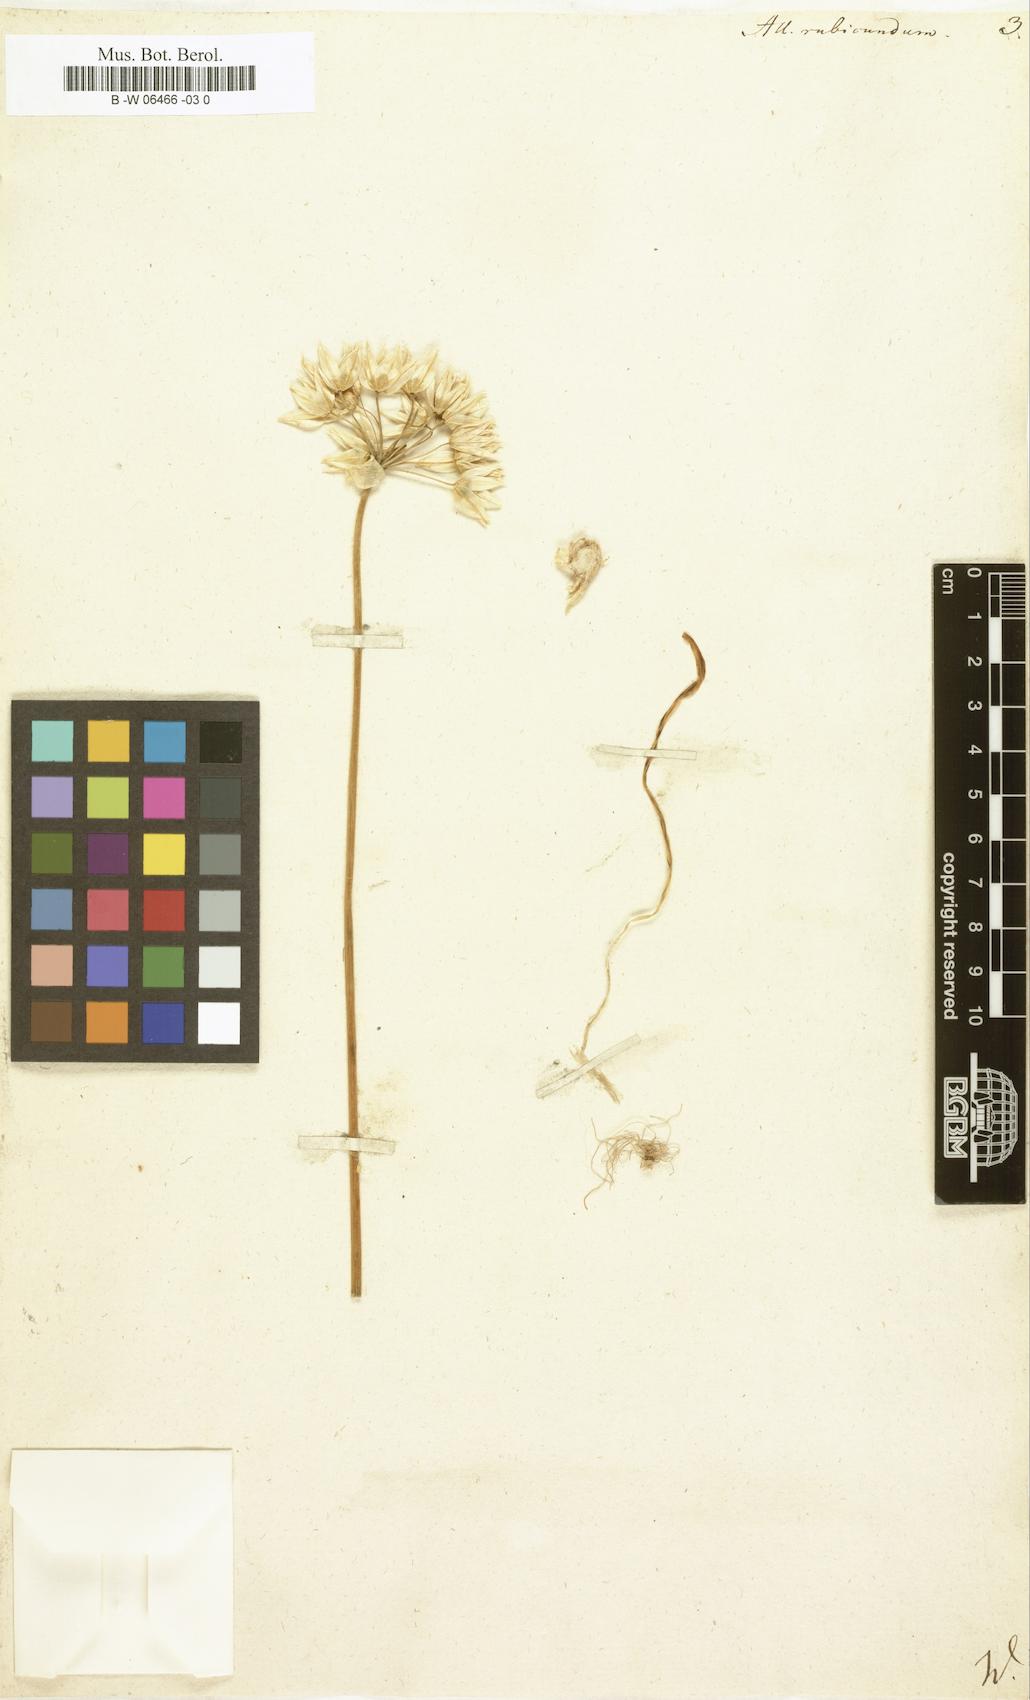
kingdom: Plantae
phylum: Tracheophyta
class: Liliopsida
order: Asparagales
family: Amaryllidaceae
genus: Allium
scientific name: Allium
